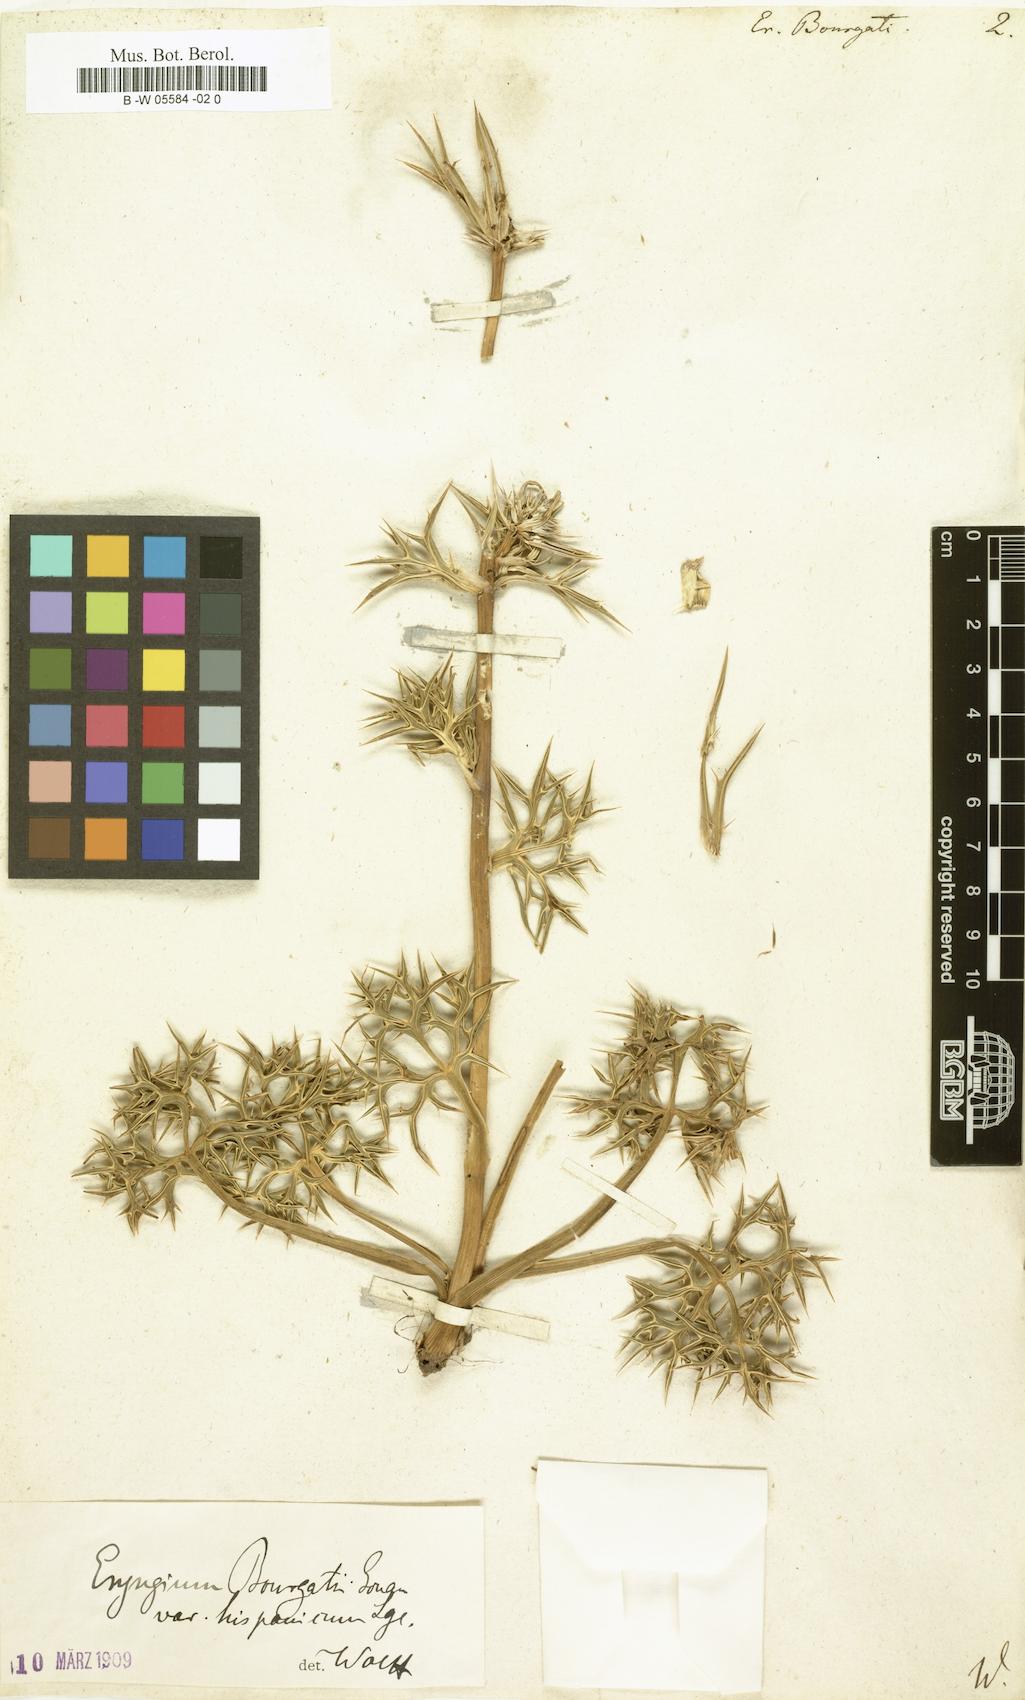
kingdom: Plantae
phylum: Tracheophyta
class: Magnoliopsida
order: Apiales
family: Apiaceae
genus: Eryngium
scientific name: Eryngium bourgatii
